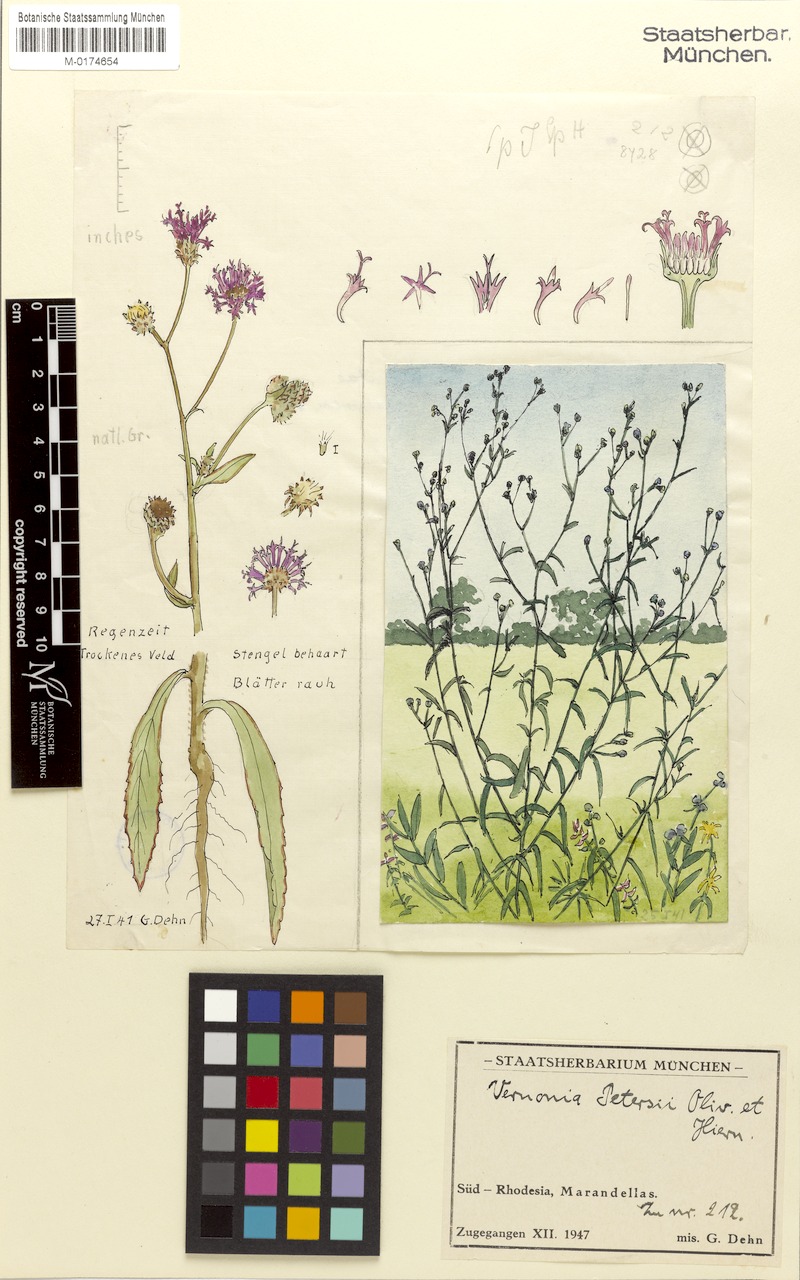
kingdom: Plantae
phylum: Tracheophyta
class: Magnoliopsida
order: Asterales
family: Asteraceae
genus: Vernoniastrum
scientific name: Vernoniastrum latifolium
